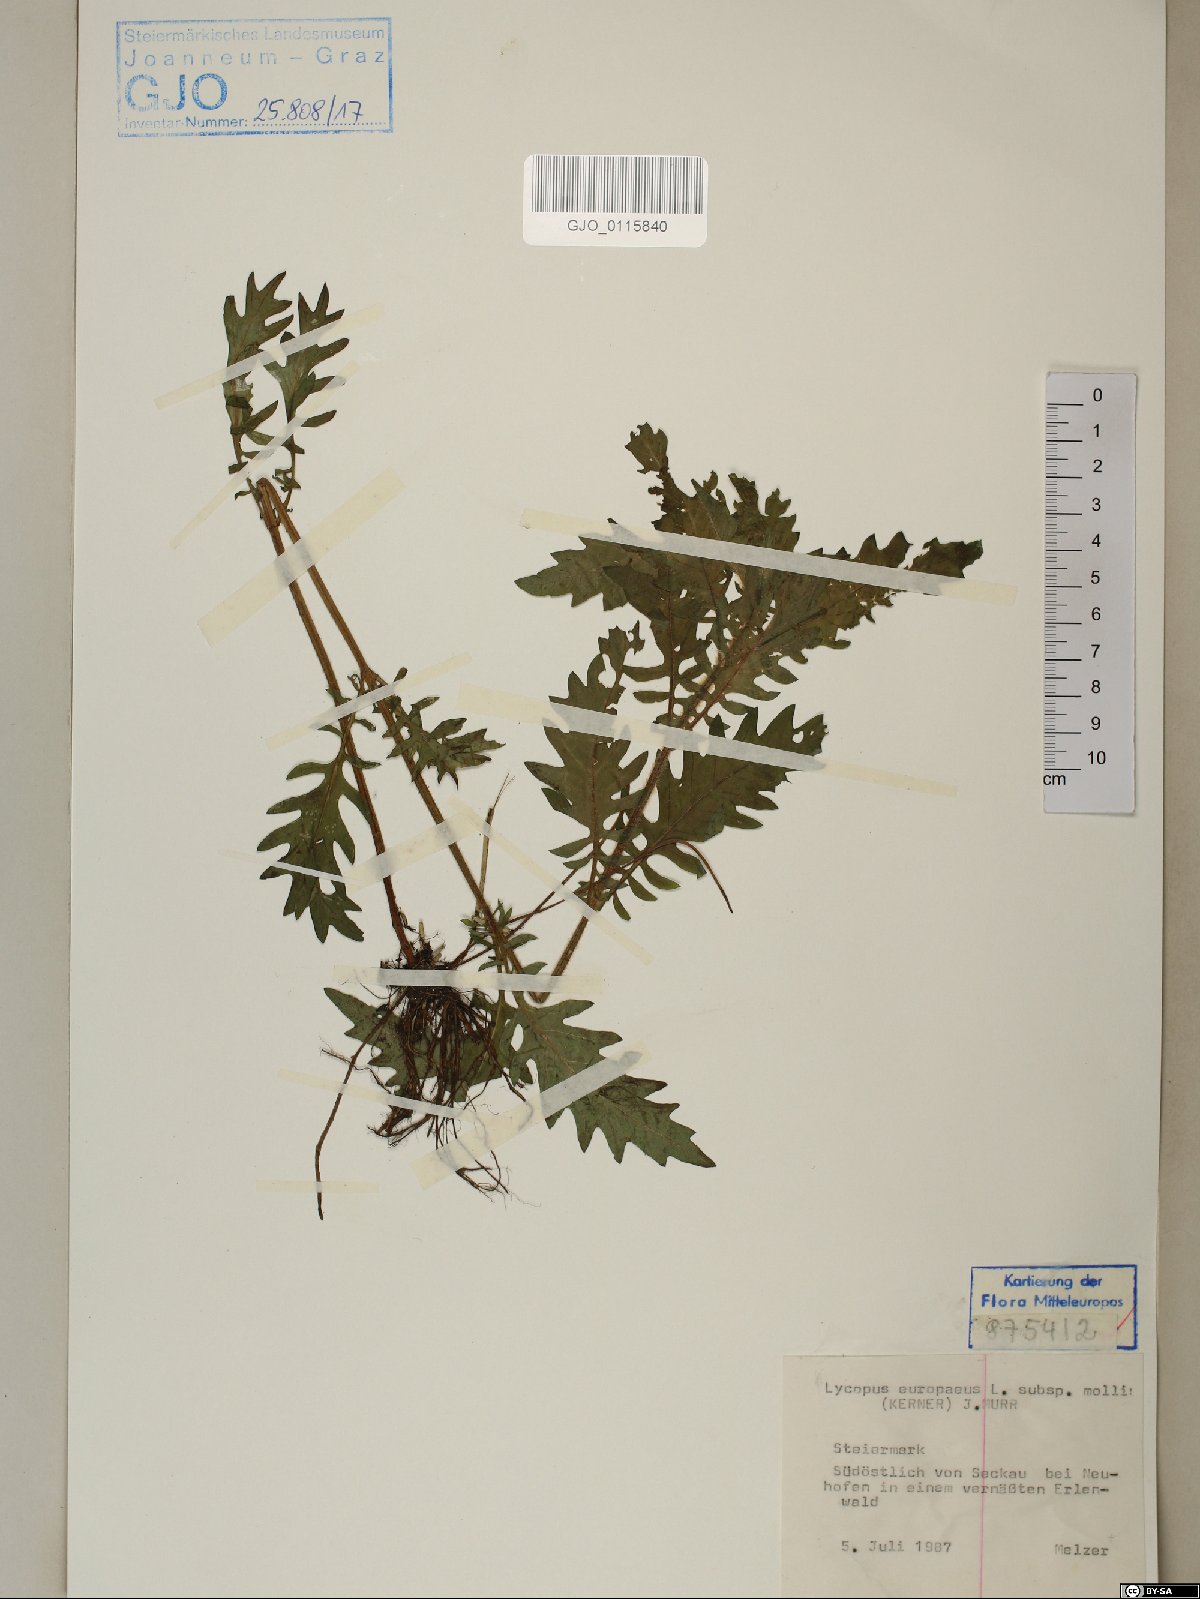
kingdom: Plantae
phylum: Tracheophyta
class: Magnoliopsida
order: Lamiales
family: Lamiaceae
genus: Lycopus
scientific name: Lycopus europaeus
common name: European bugleweed
